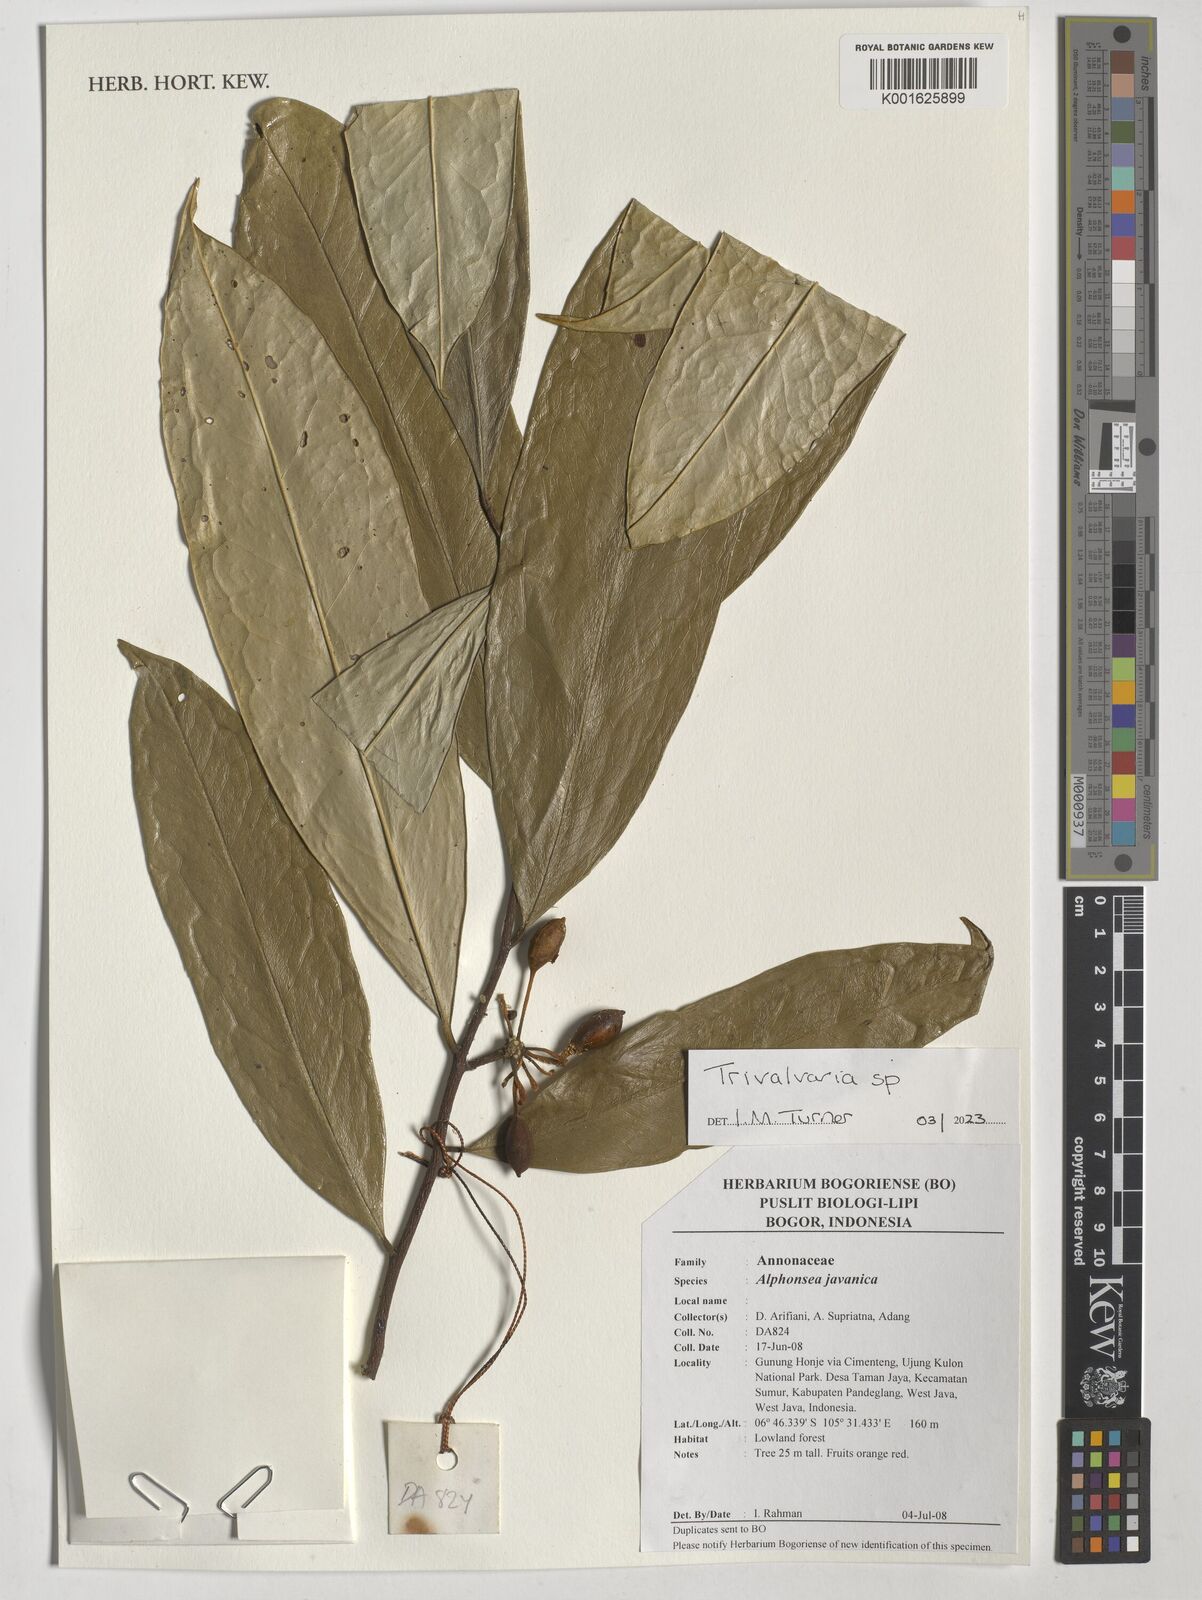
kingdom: Plantae
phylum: Tracheophyta
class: Magnoliopsida
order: Magnoliales
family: Annonaceae
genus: Trivalvaria
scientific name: Trivalvaria
